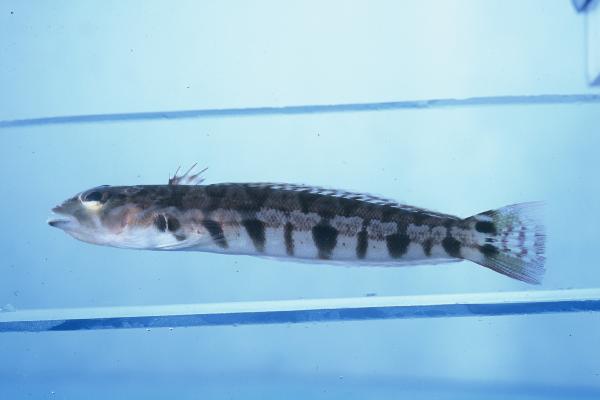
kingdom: Animalia
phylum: Chordata
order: Perciformes
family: Pinguipedidae
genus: Parapercis
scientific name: Parapercis robinsoni
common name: Smallscale sandsmelt
